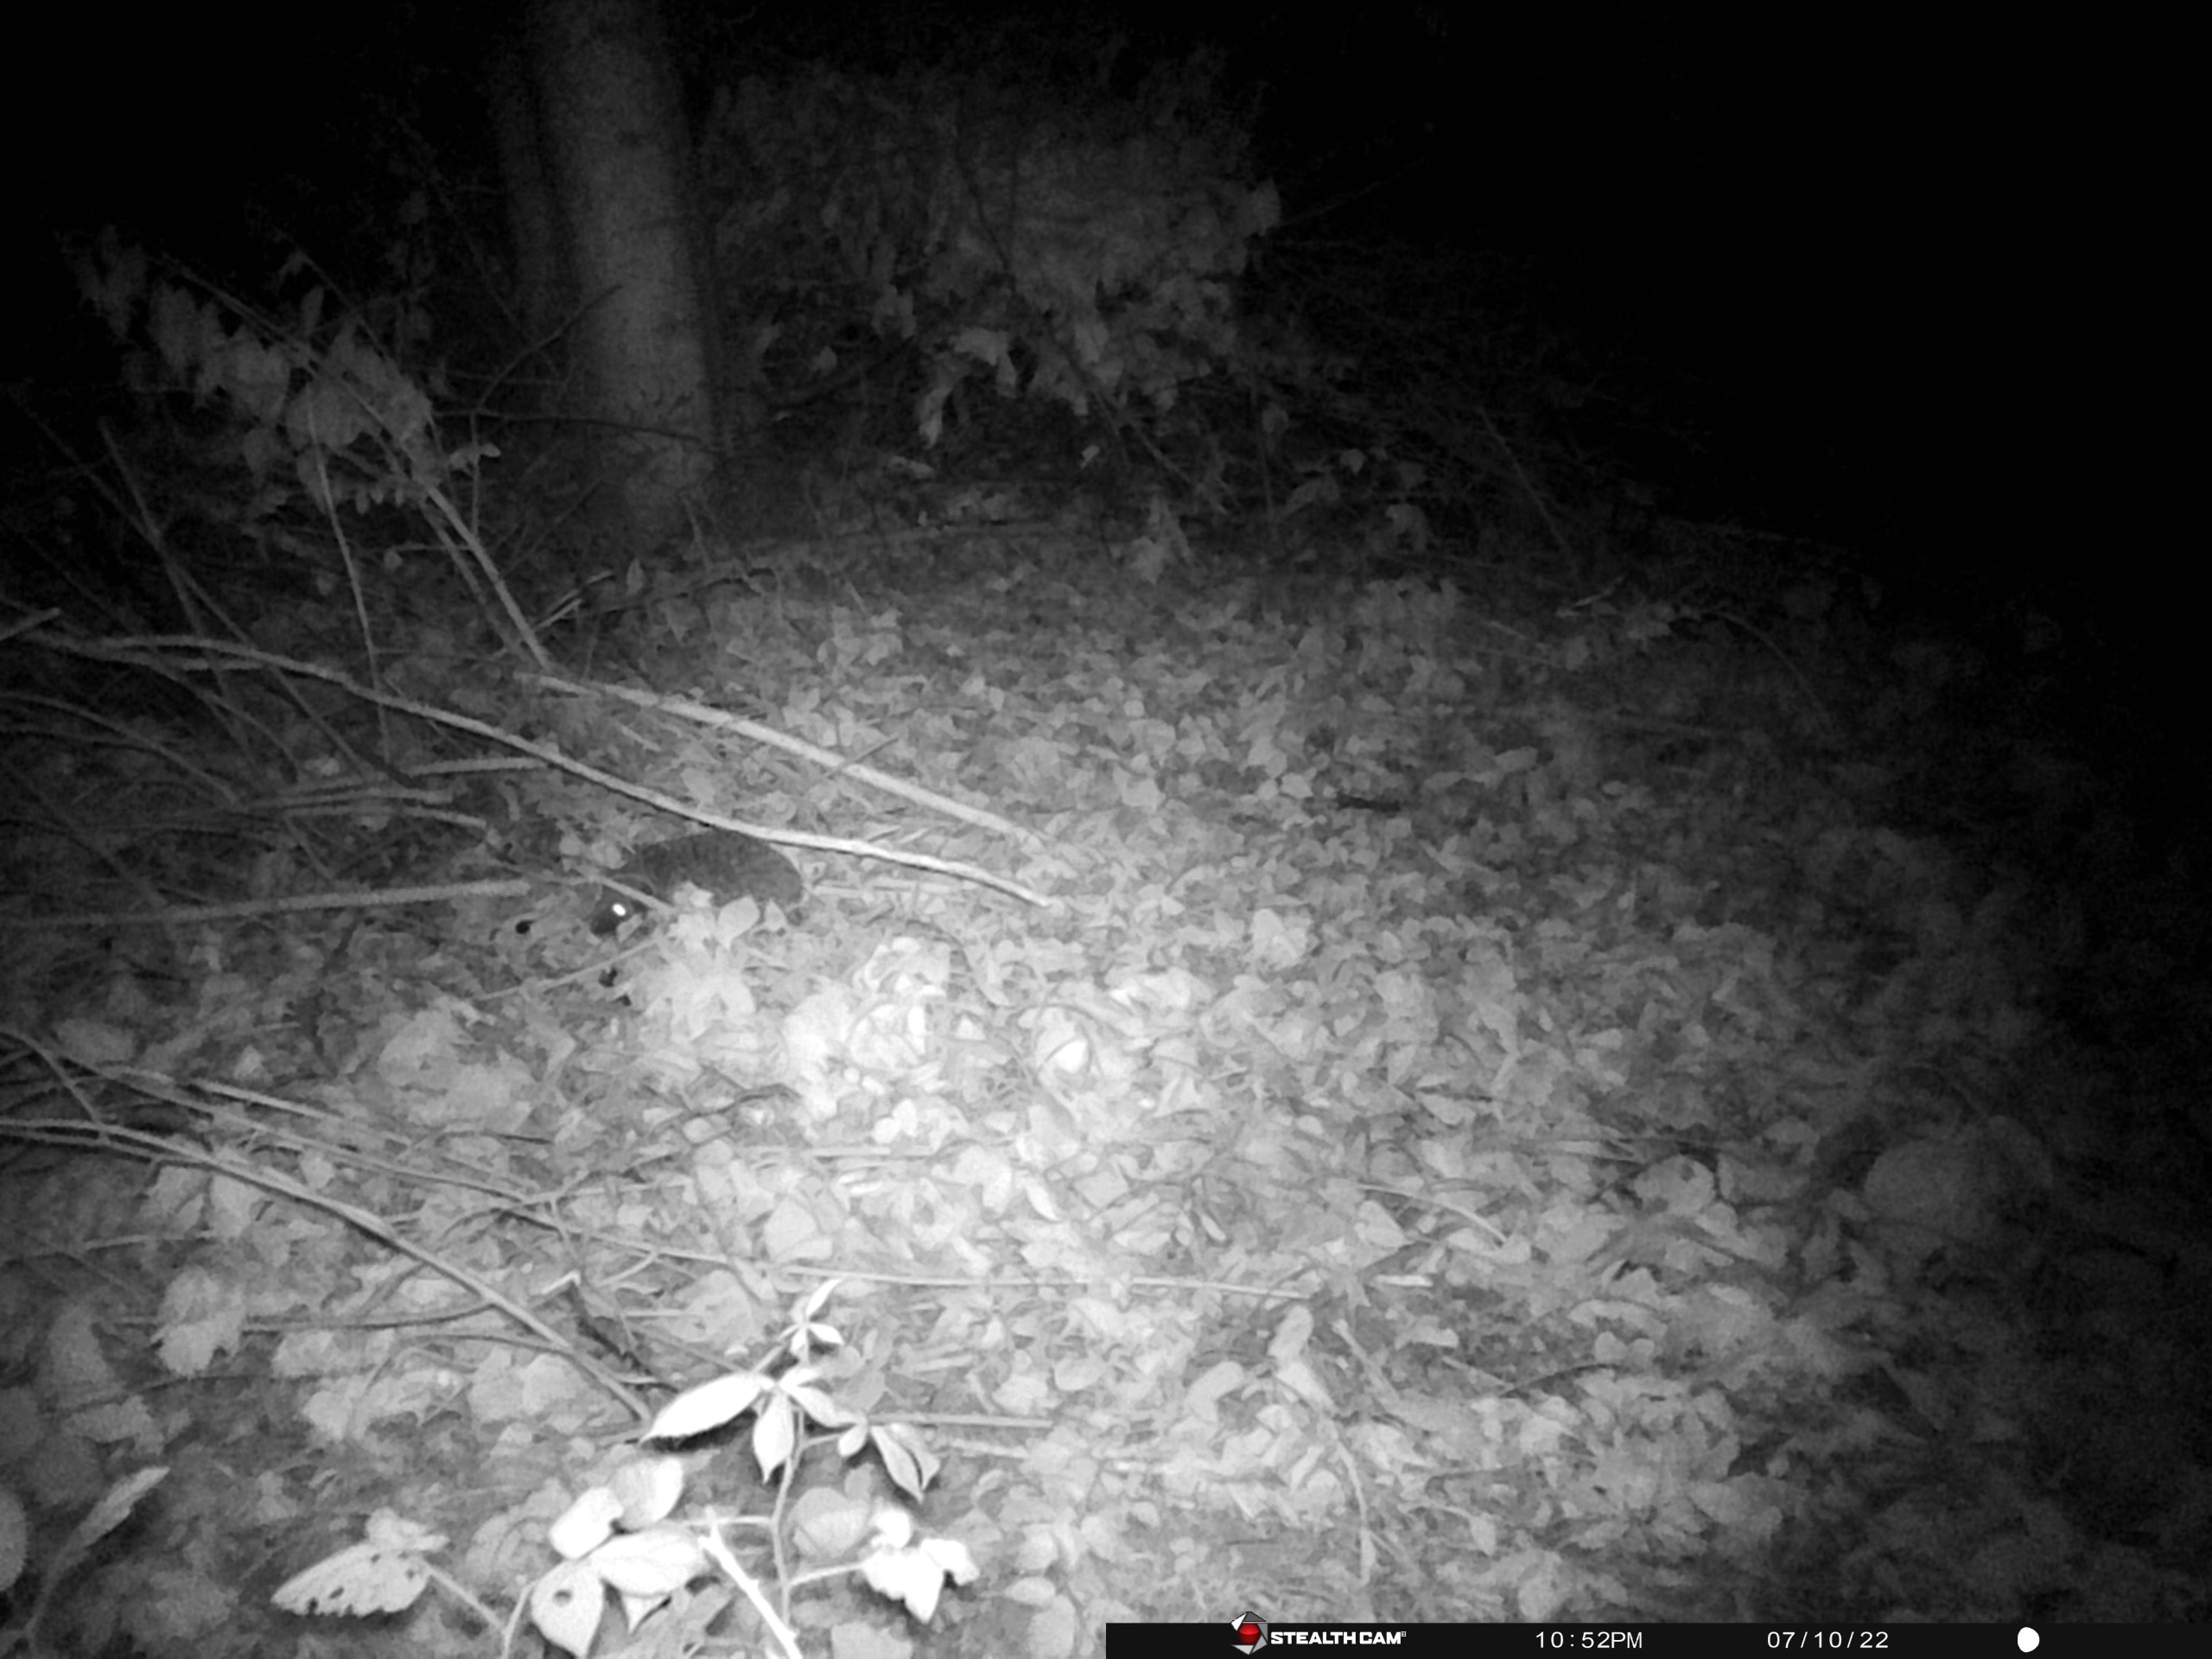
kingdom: Animalia
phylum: Chordata
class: Mammalia
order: Erinaceomorpha
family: Erinaceidae
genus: Erinaceus
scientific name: Erinaceus europaeus
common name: Pindsvin
